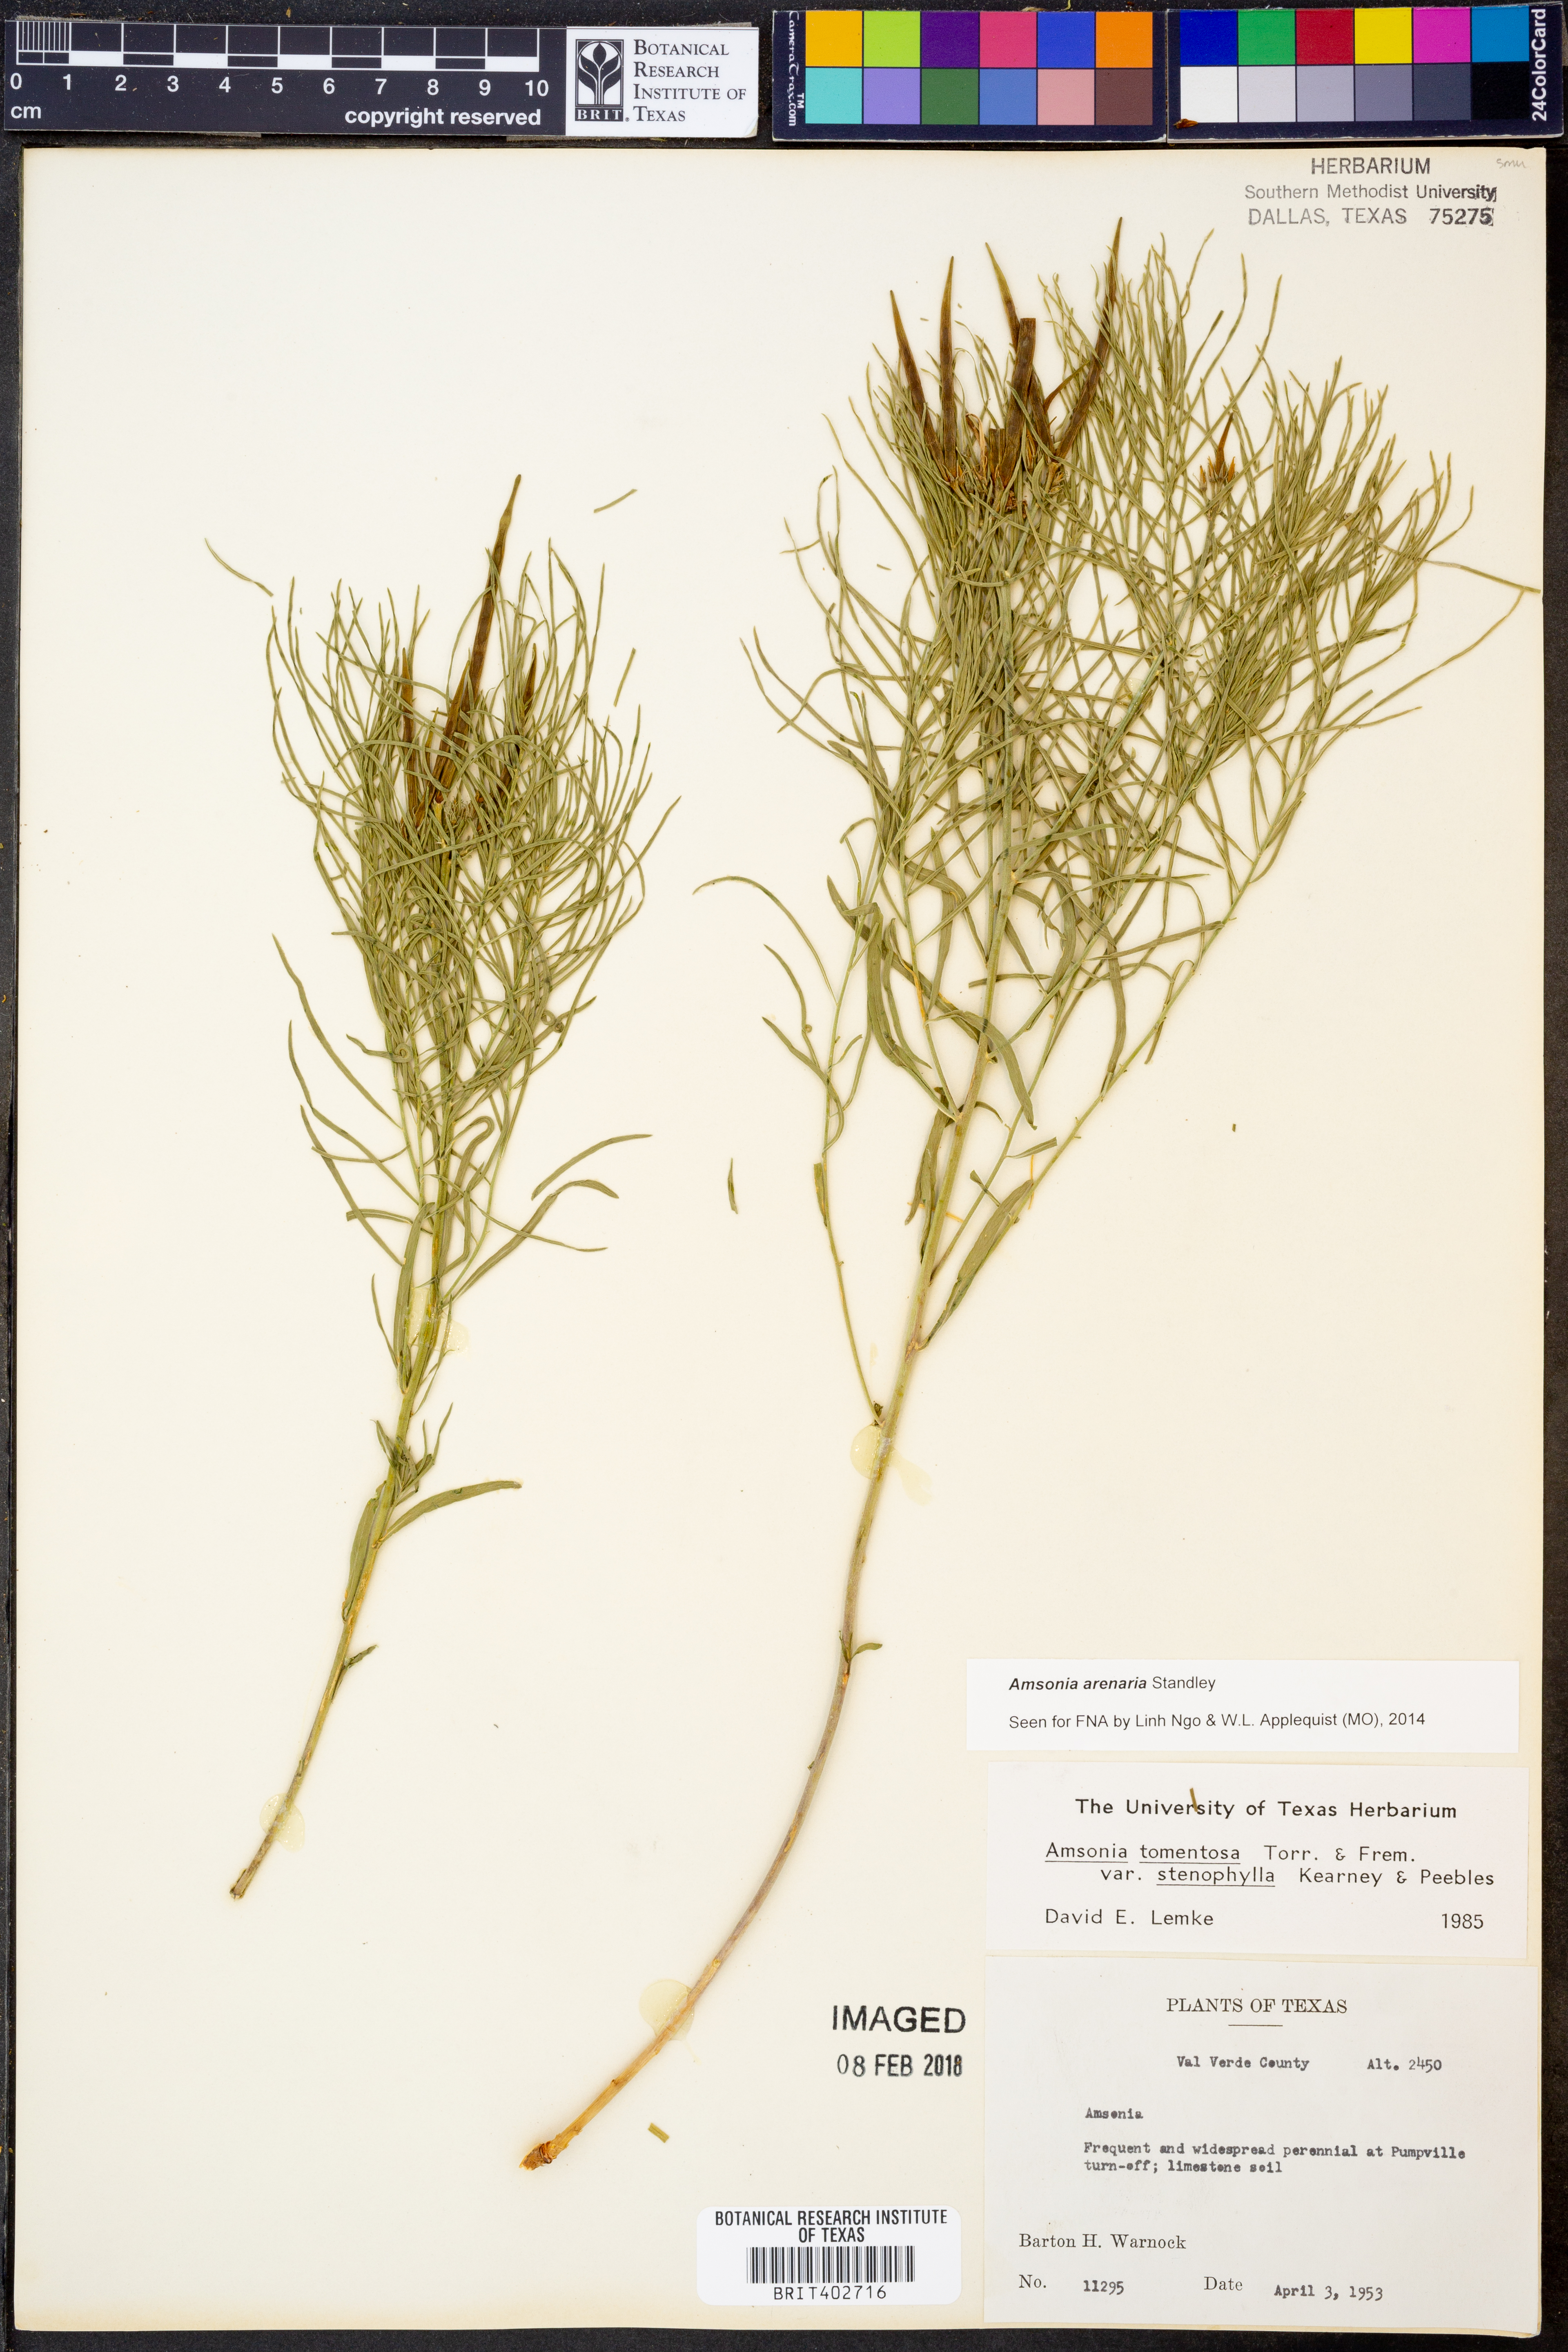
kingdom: Plantae
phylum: Tracheophyta
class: Magnoliopsida
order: Gentianales
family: Apocynaceae
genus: Amsonia
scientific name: Amsonia tomentosa
